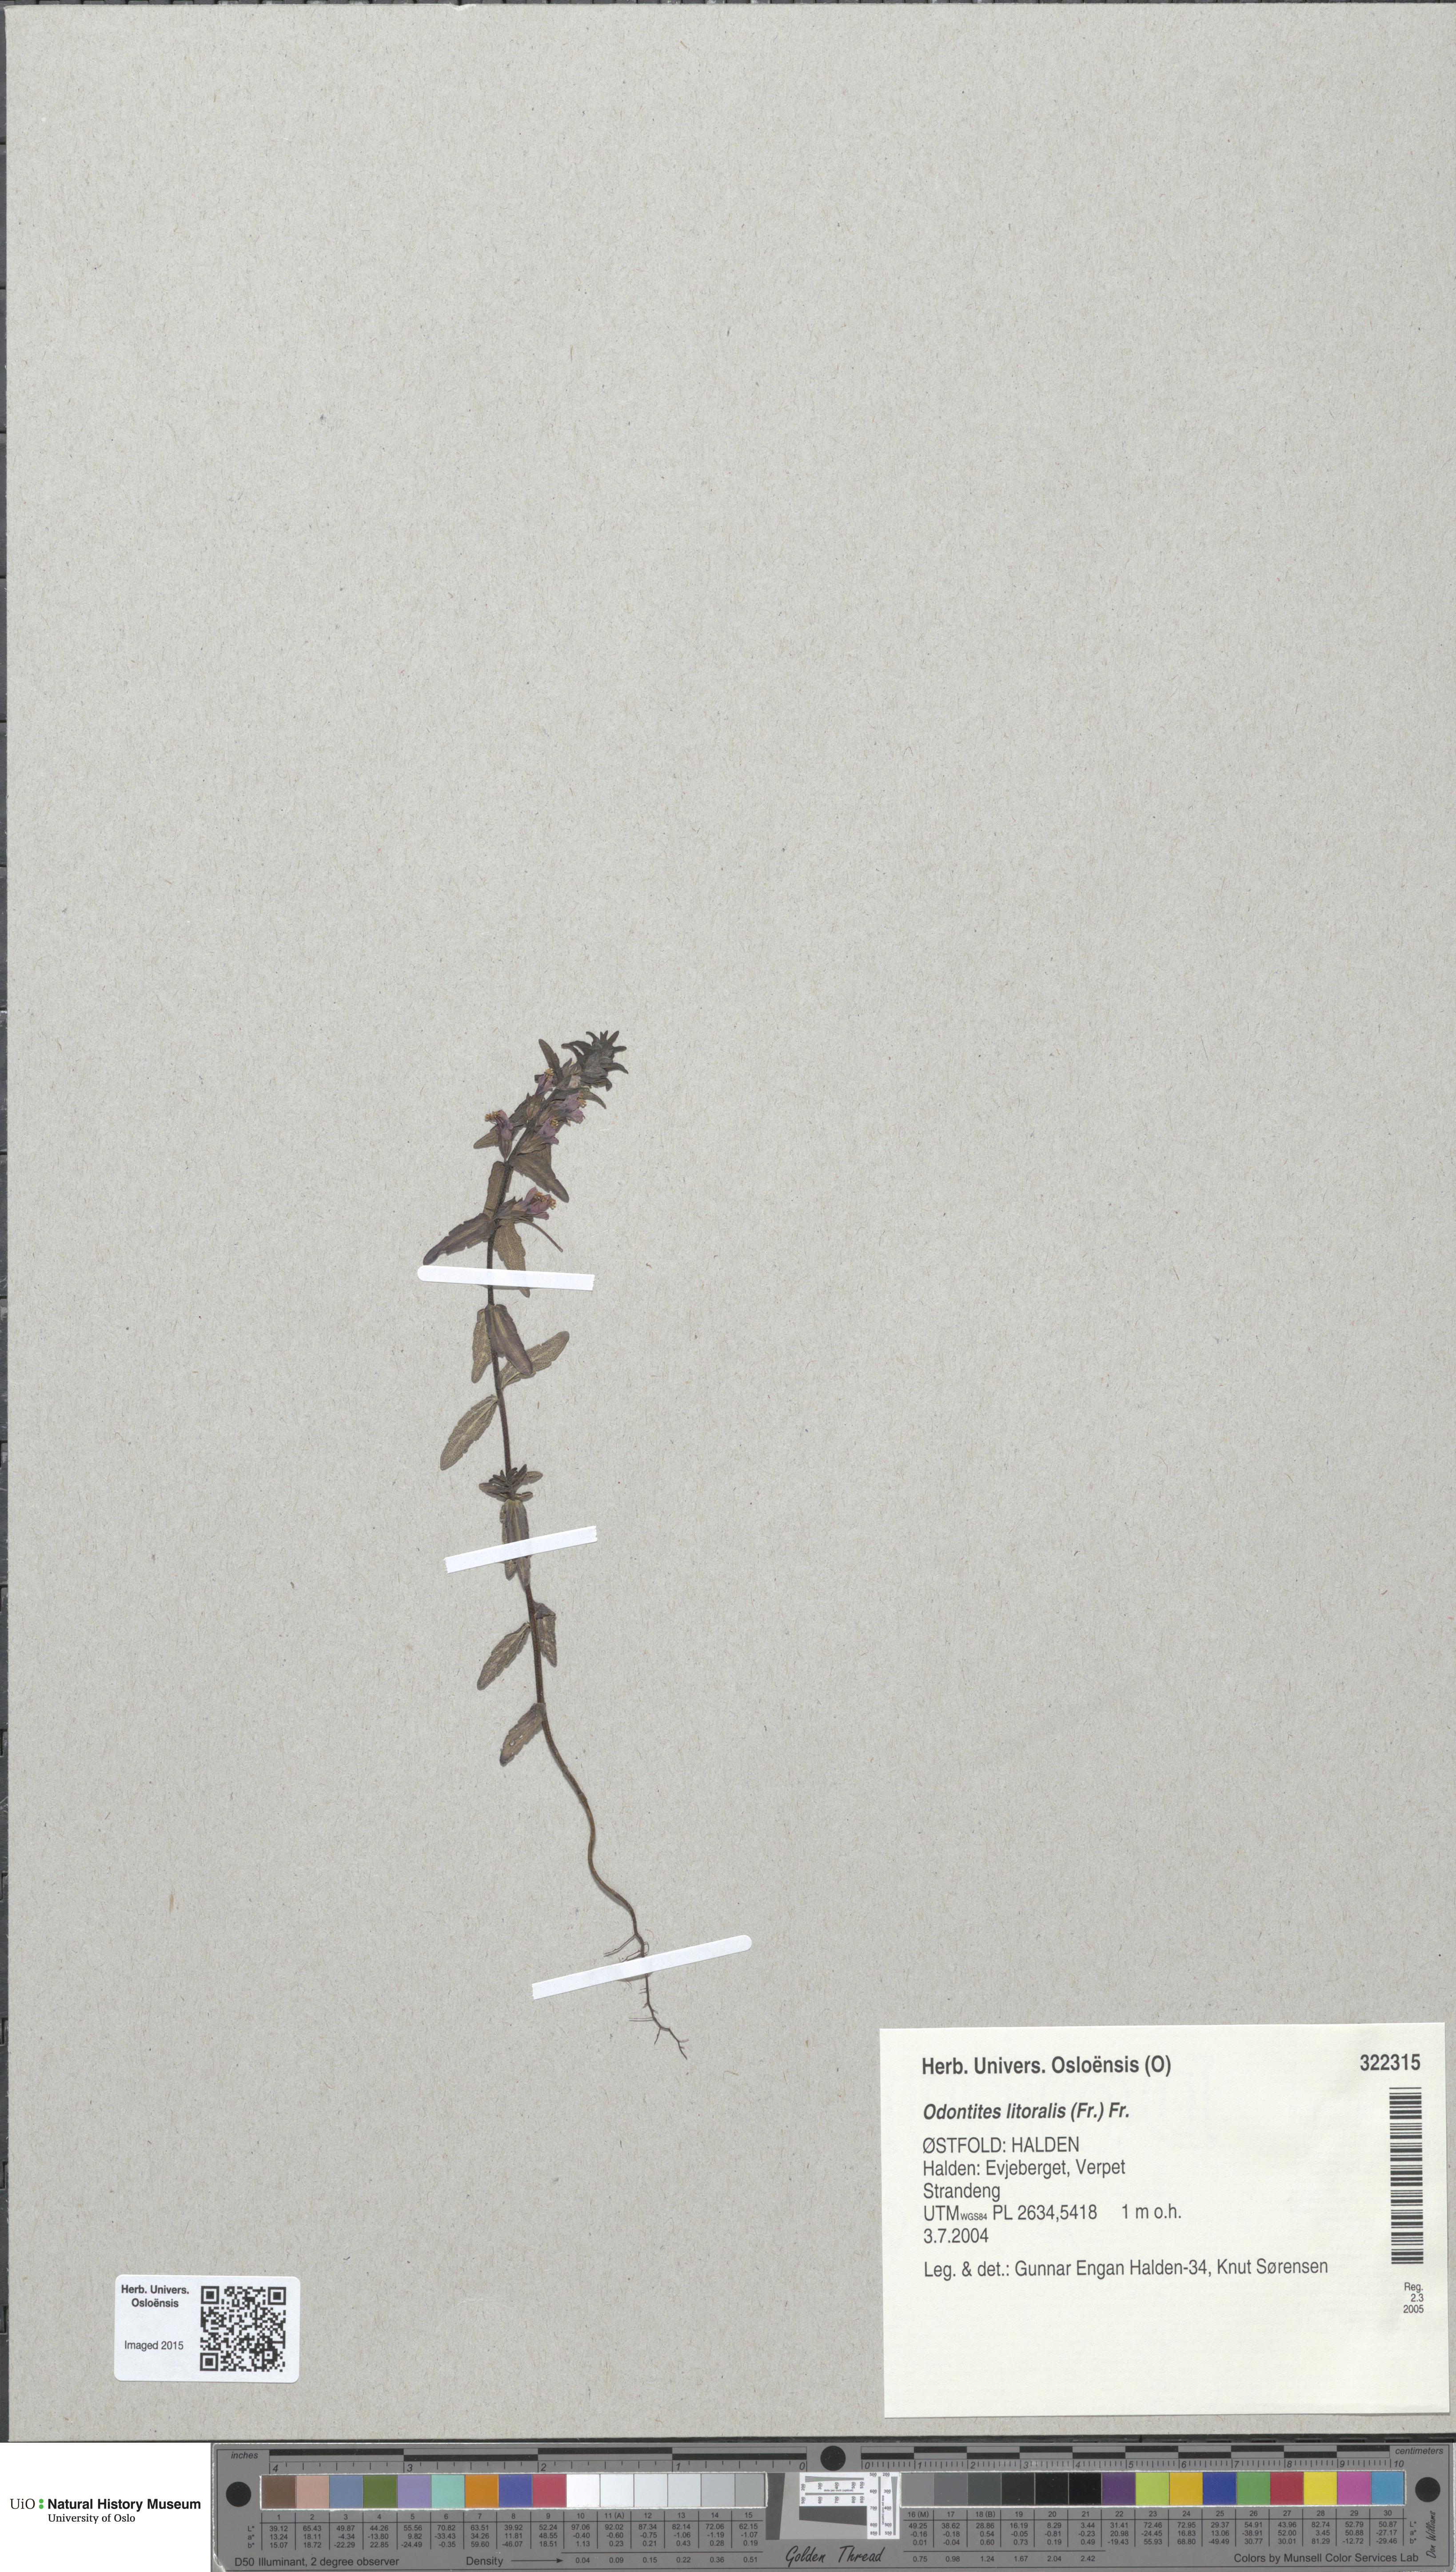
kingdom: Plantae
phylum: Tracheophyta
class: Magnoliopsida
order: Lamiales
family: Orobanchaceae
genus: Odontites
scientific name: Odontites litoralis
